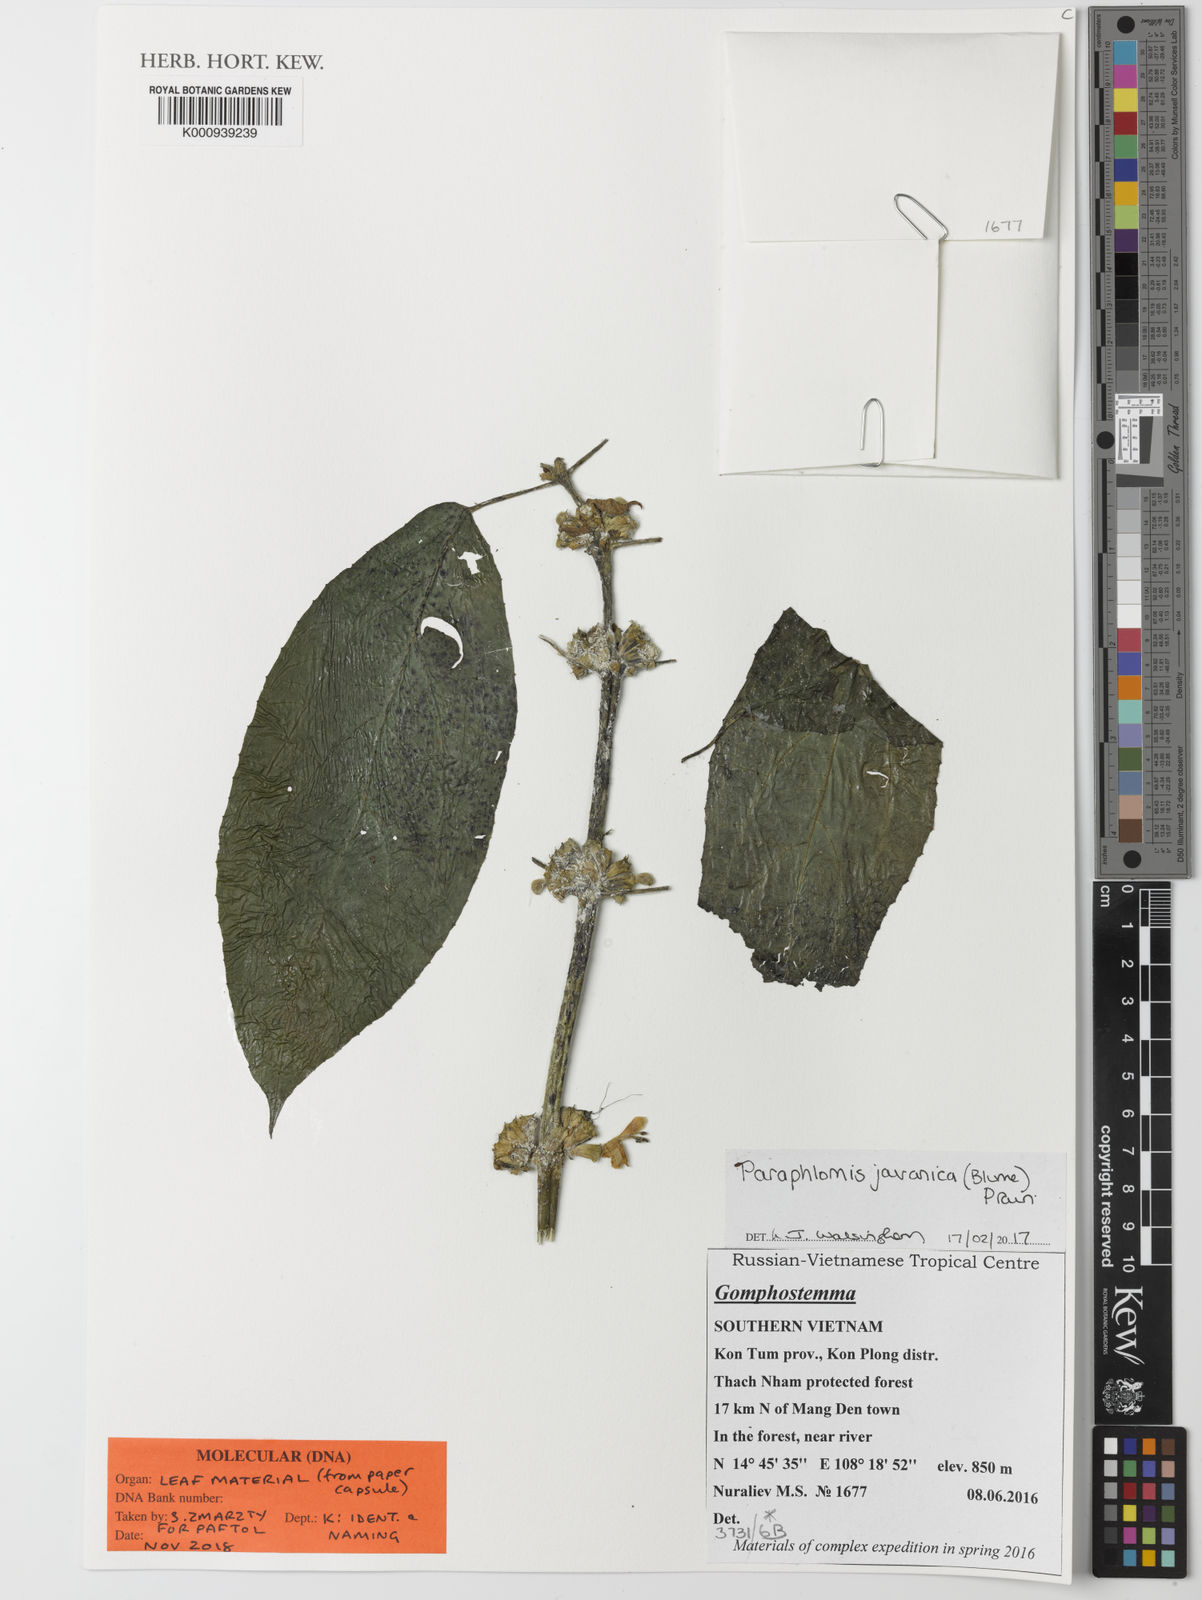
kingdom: Plantae
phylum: Tracheophyta
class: Magnoliopsida
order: Lamiales
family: Lamiaceae
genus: Paraphlomis
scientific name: Paraphlomis javanica
